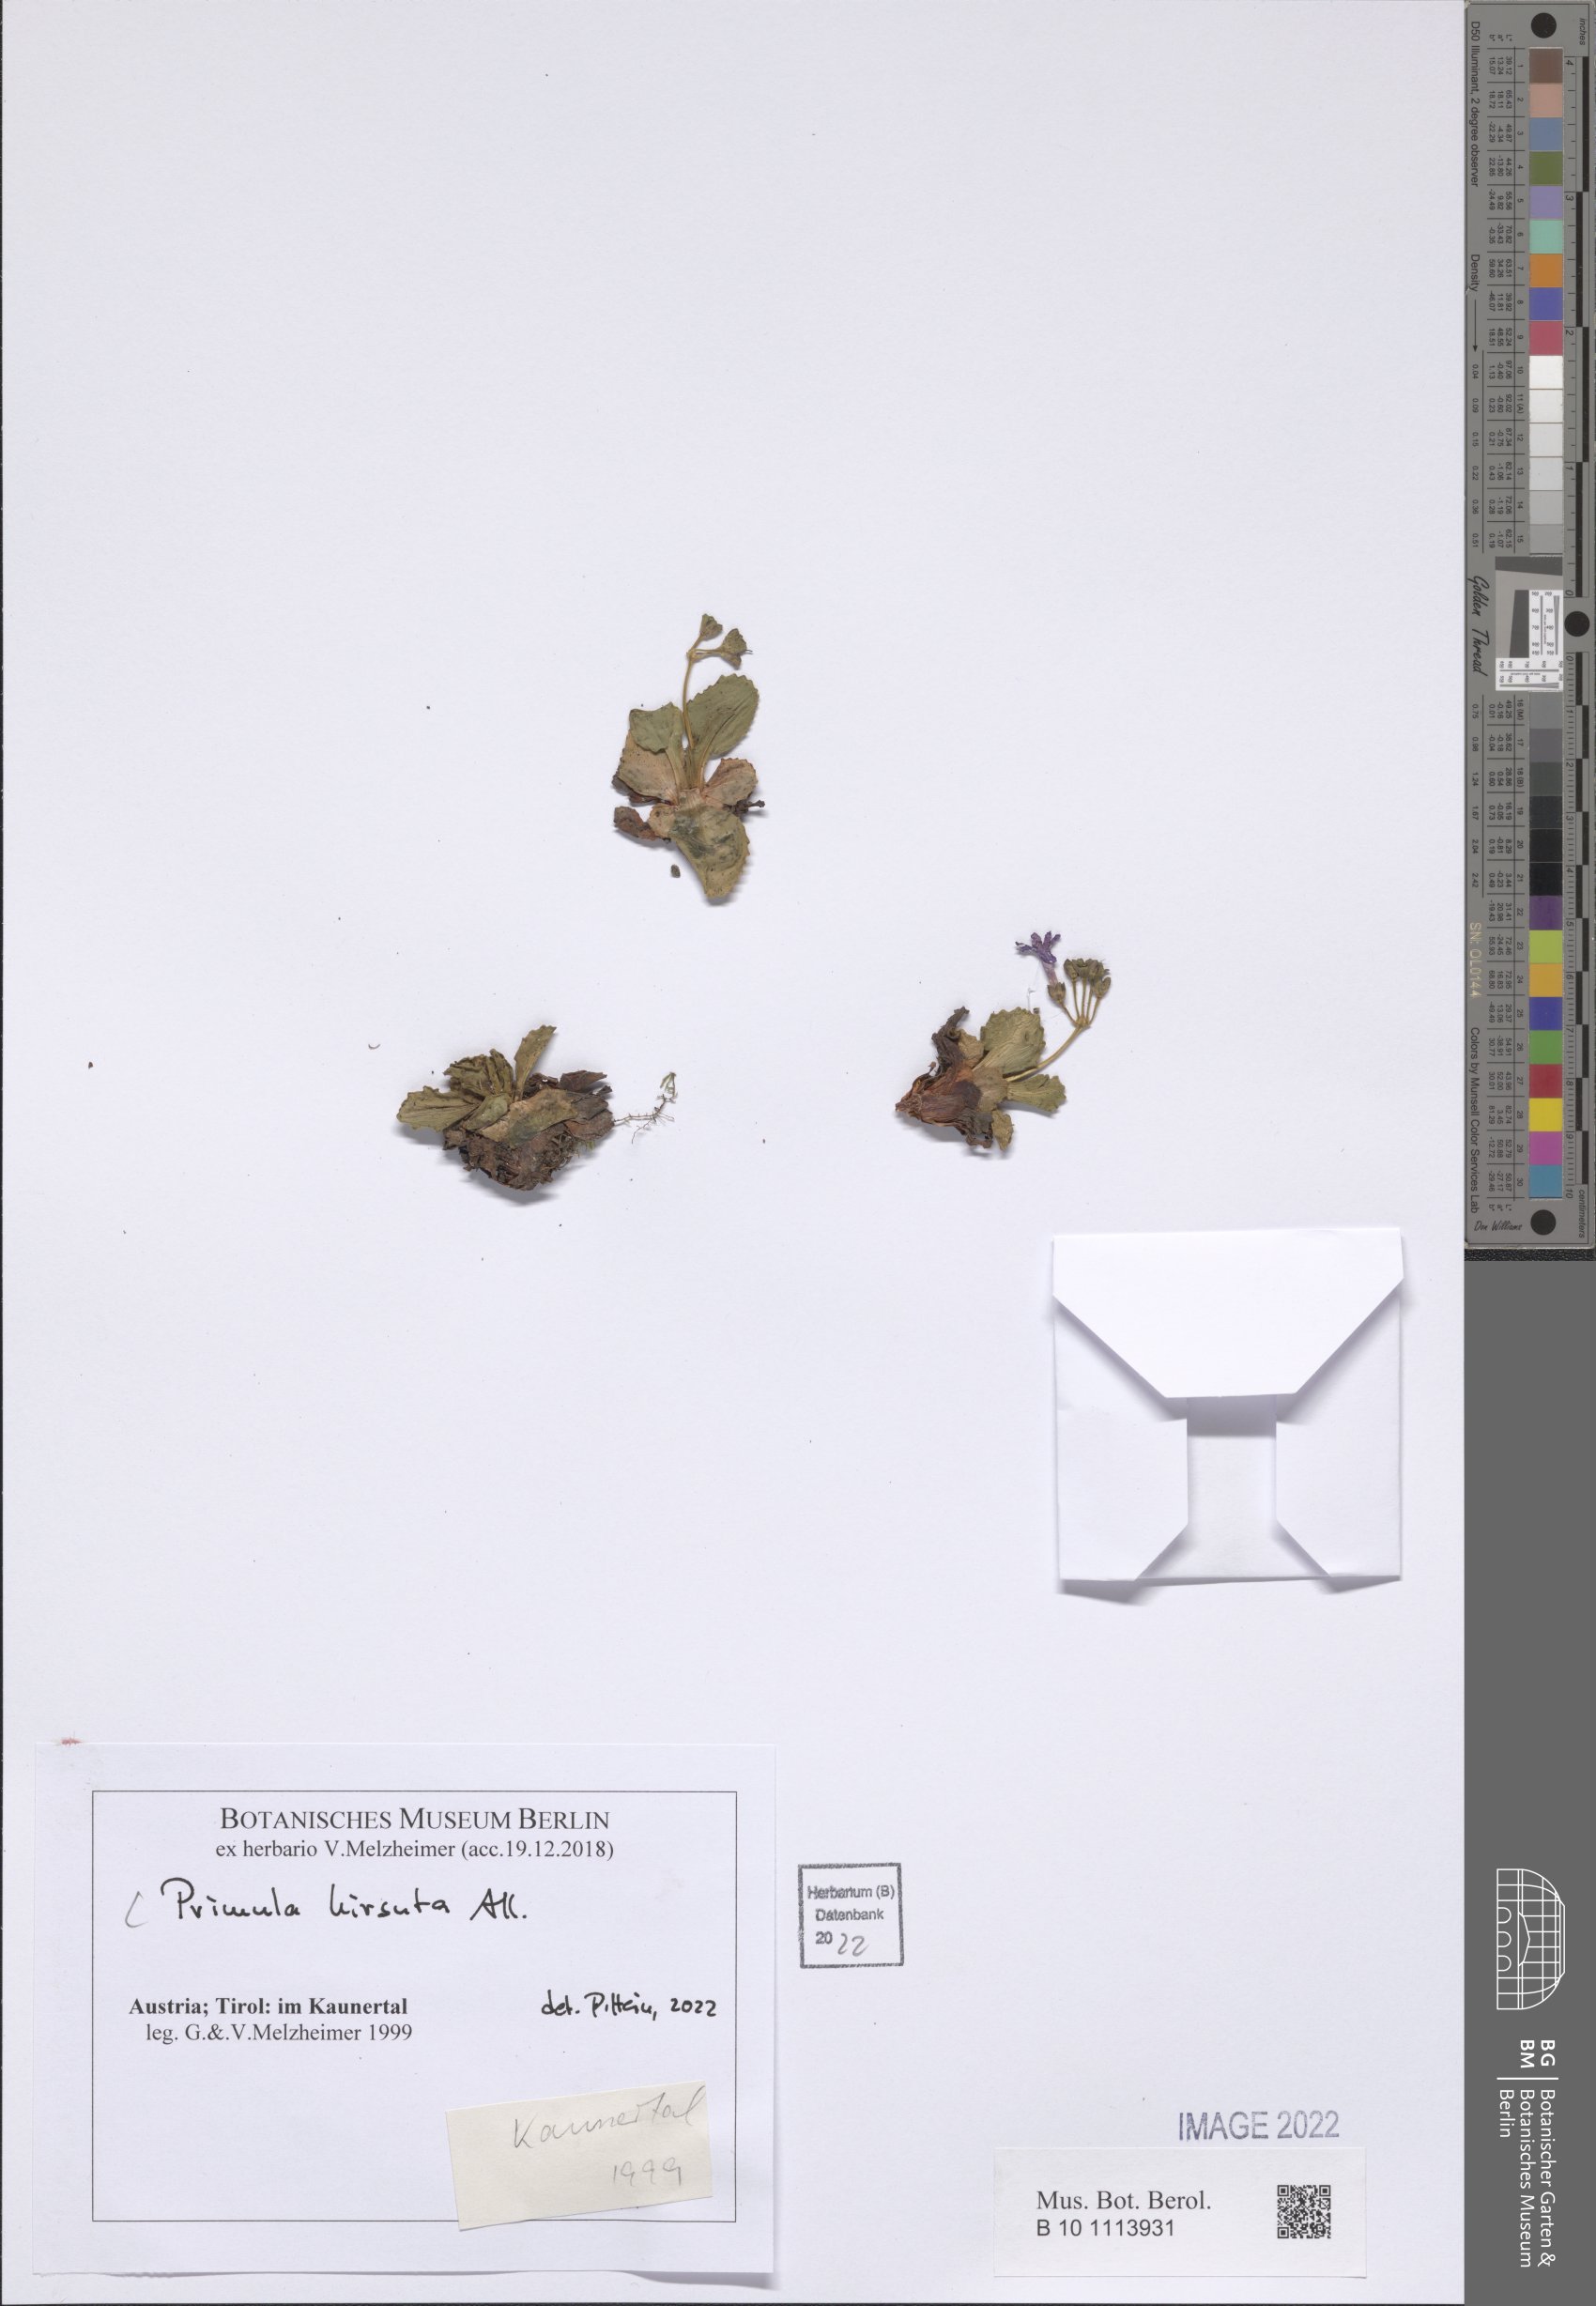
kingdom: Plantae
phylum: Tracheophyta
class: Magnoliopsida
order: Ericales
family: Primulaceae
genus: Primula
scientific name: Primula hirsuta
